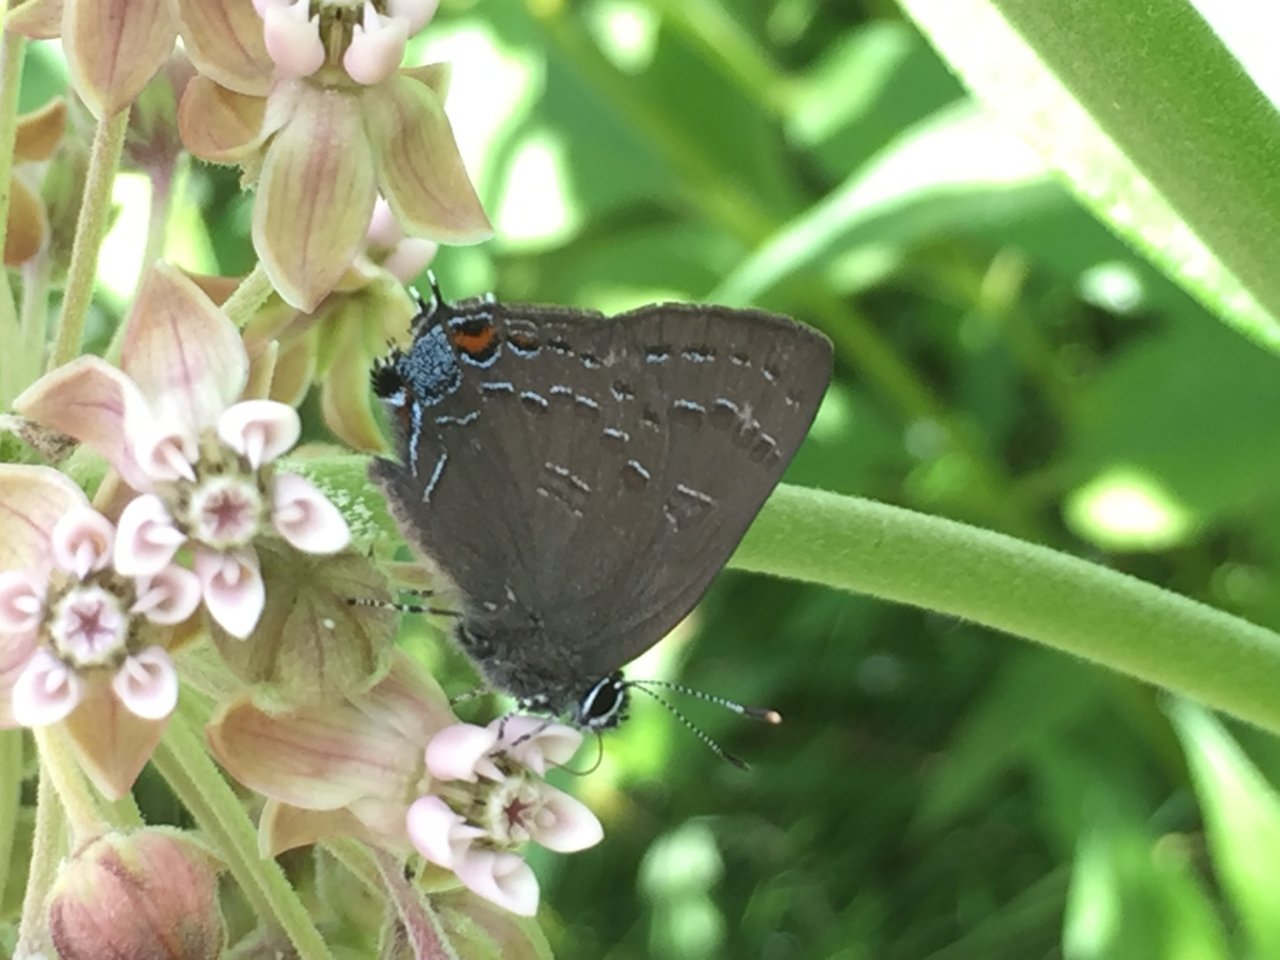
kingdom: Animalia
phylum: Arthropoda
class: Insecta
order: Lepidoptera
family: Lycaenidae
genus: Satyrium
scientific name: Satyrium calanus
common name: Banded Hairstreak
